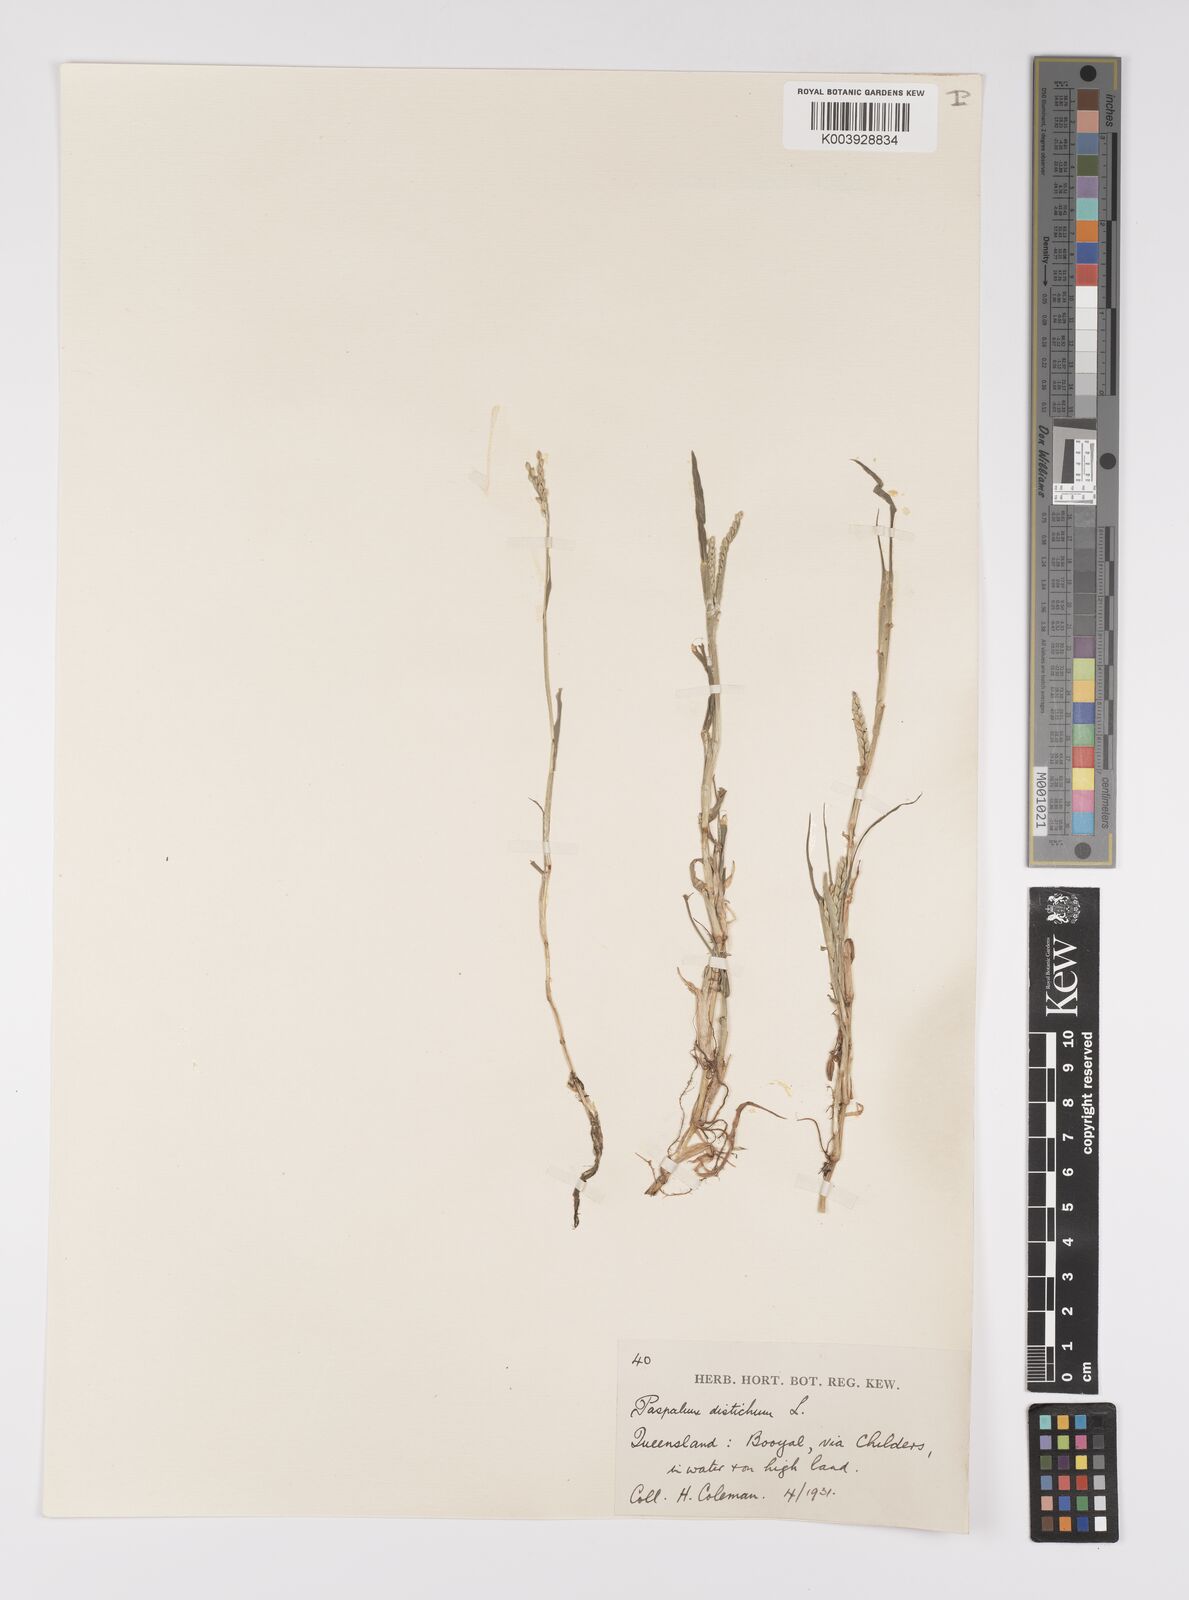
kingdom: Plantae
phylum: Tracheophyta
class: Liliopsida
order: Poales
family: Poaceae
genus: Paspalum
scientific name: Paspalum distichum
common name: Knotgrass
